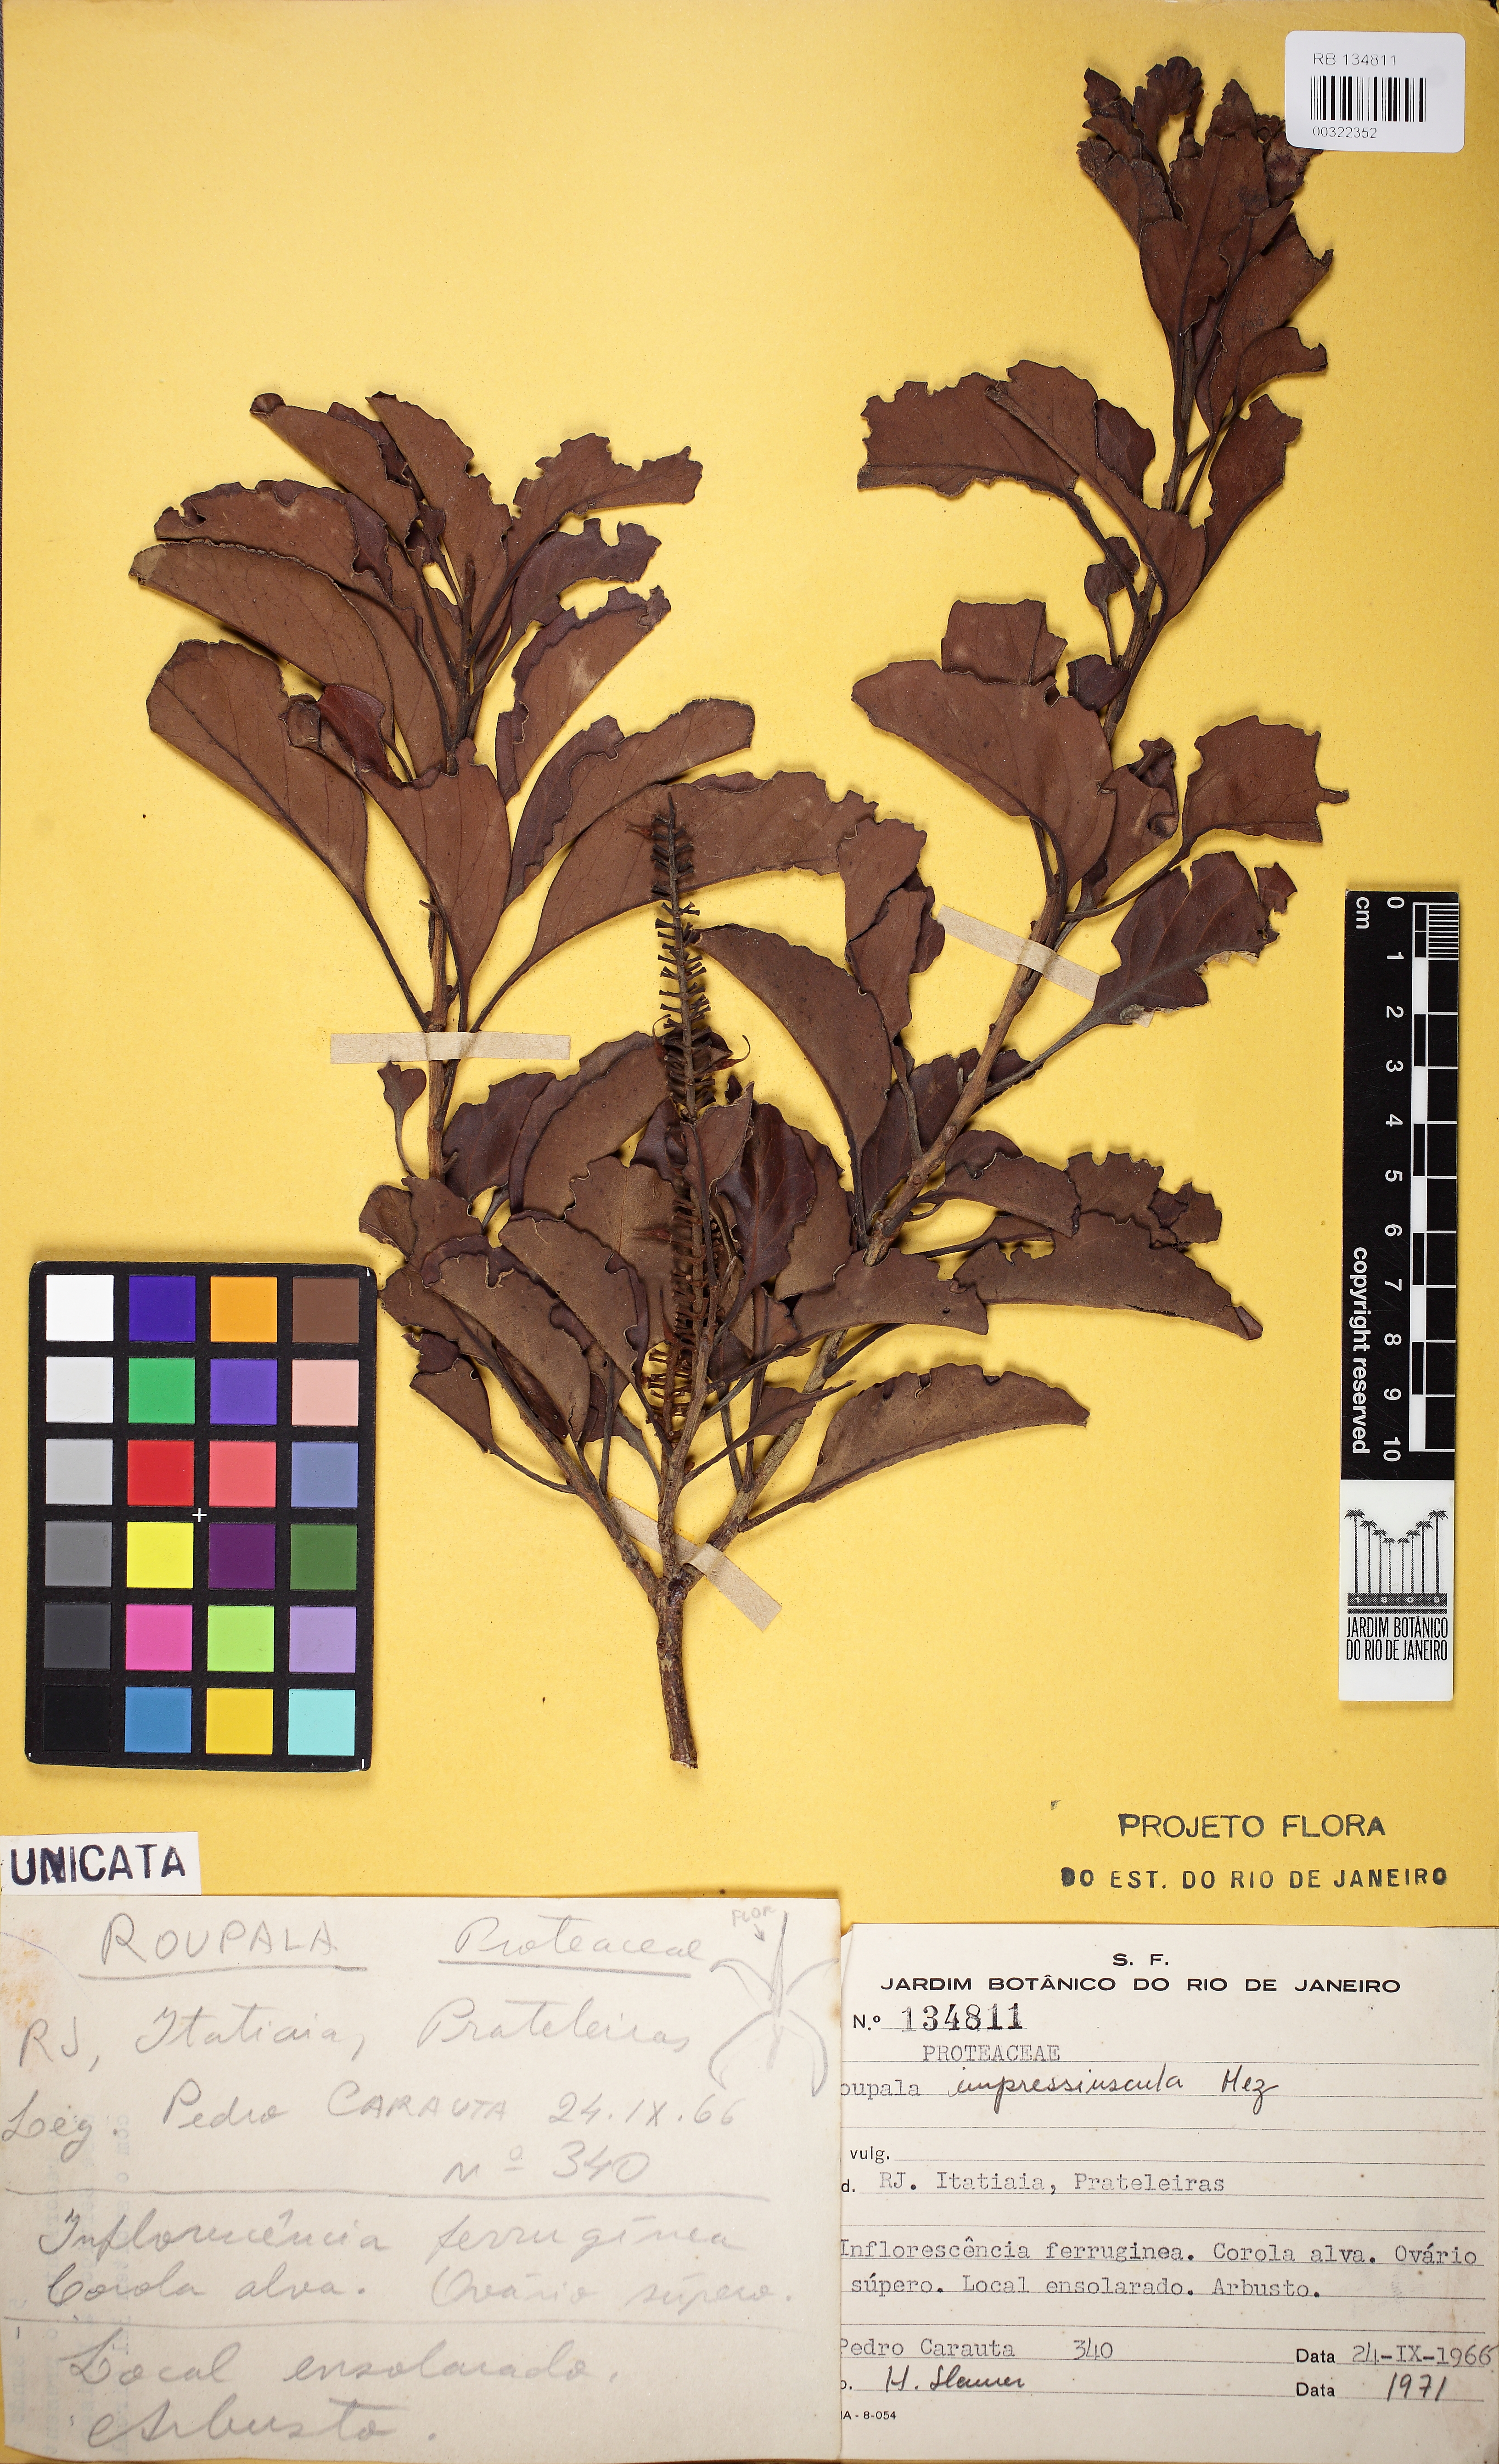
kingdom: Plantae
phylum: Tracheophyta
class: Magnoliopsida
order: Proteales
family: Proteaceae
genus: Roupala
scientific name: Roupala montana
